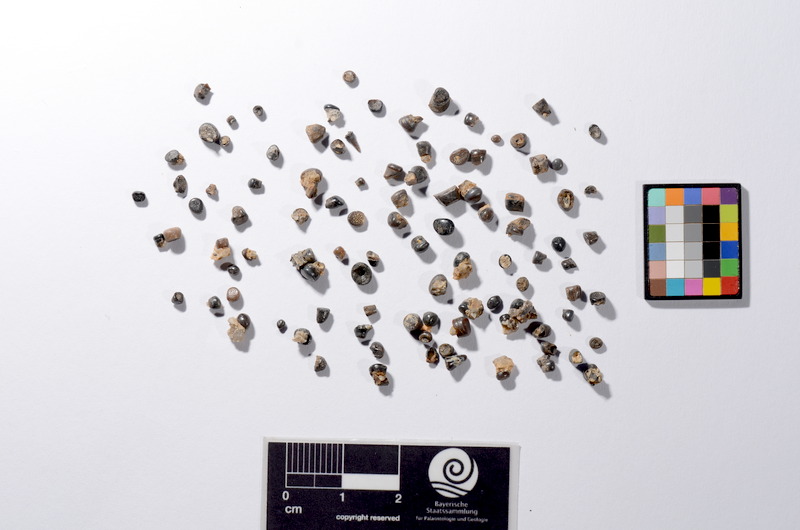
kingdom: Animalia
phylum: Chordata
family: Semionotidae
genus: Sargodon
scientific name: Sargodon tomicus
